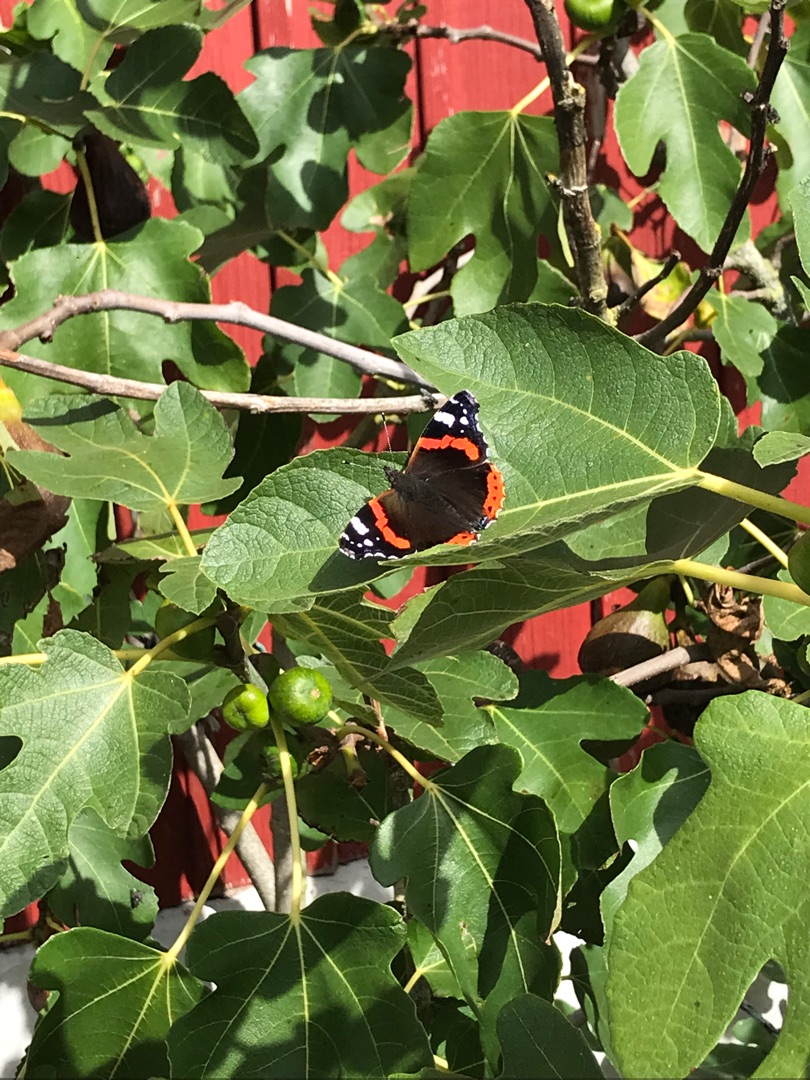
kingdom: Animalia
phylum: Arthropoda
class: Insecta
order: Lepidoptera
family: Nymphalidae
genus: Vanessa
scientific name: Vanessa atalanta
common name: Admiral
